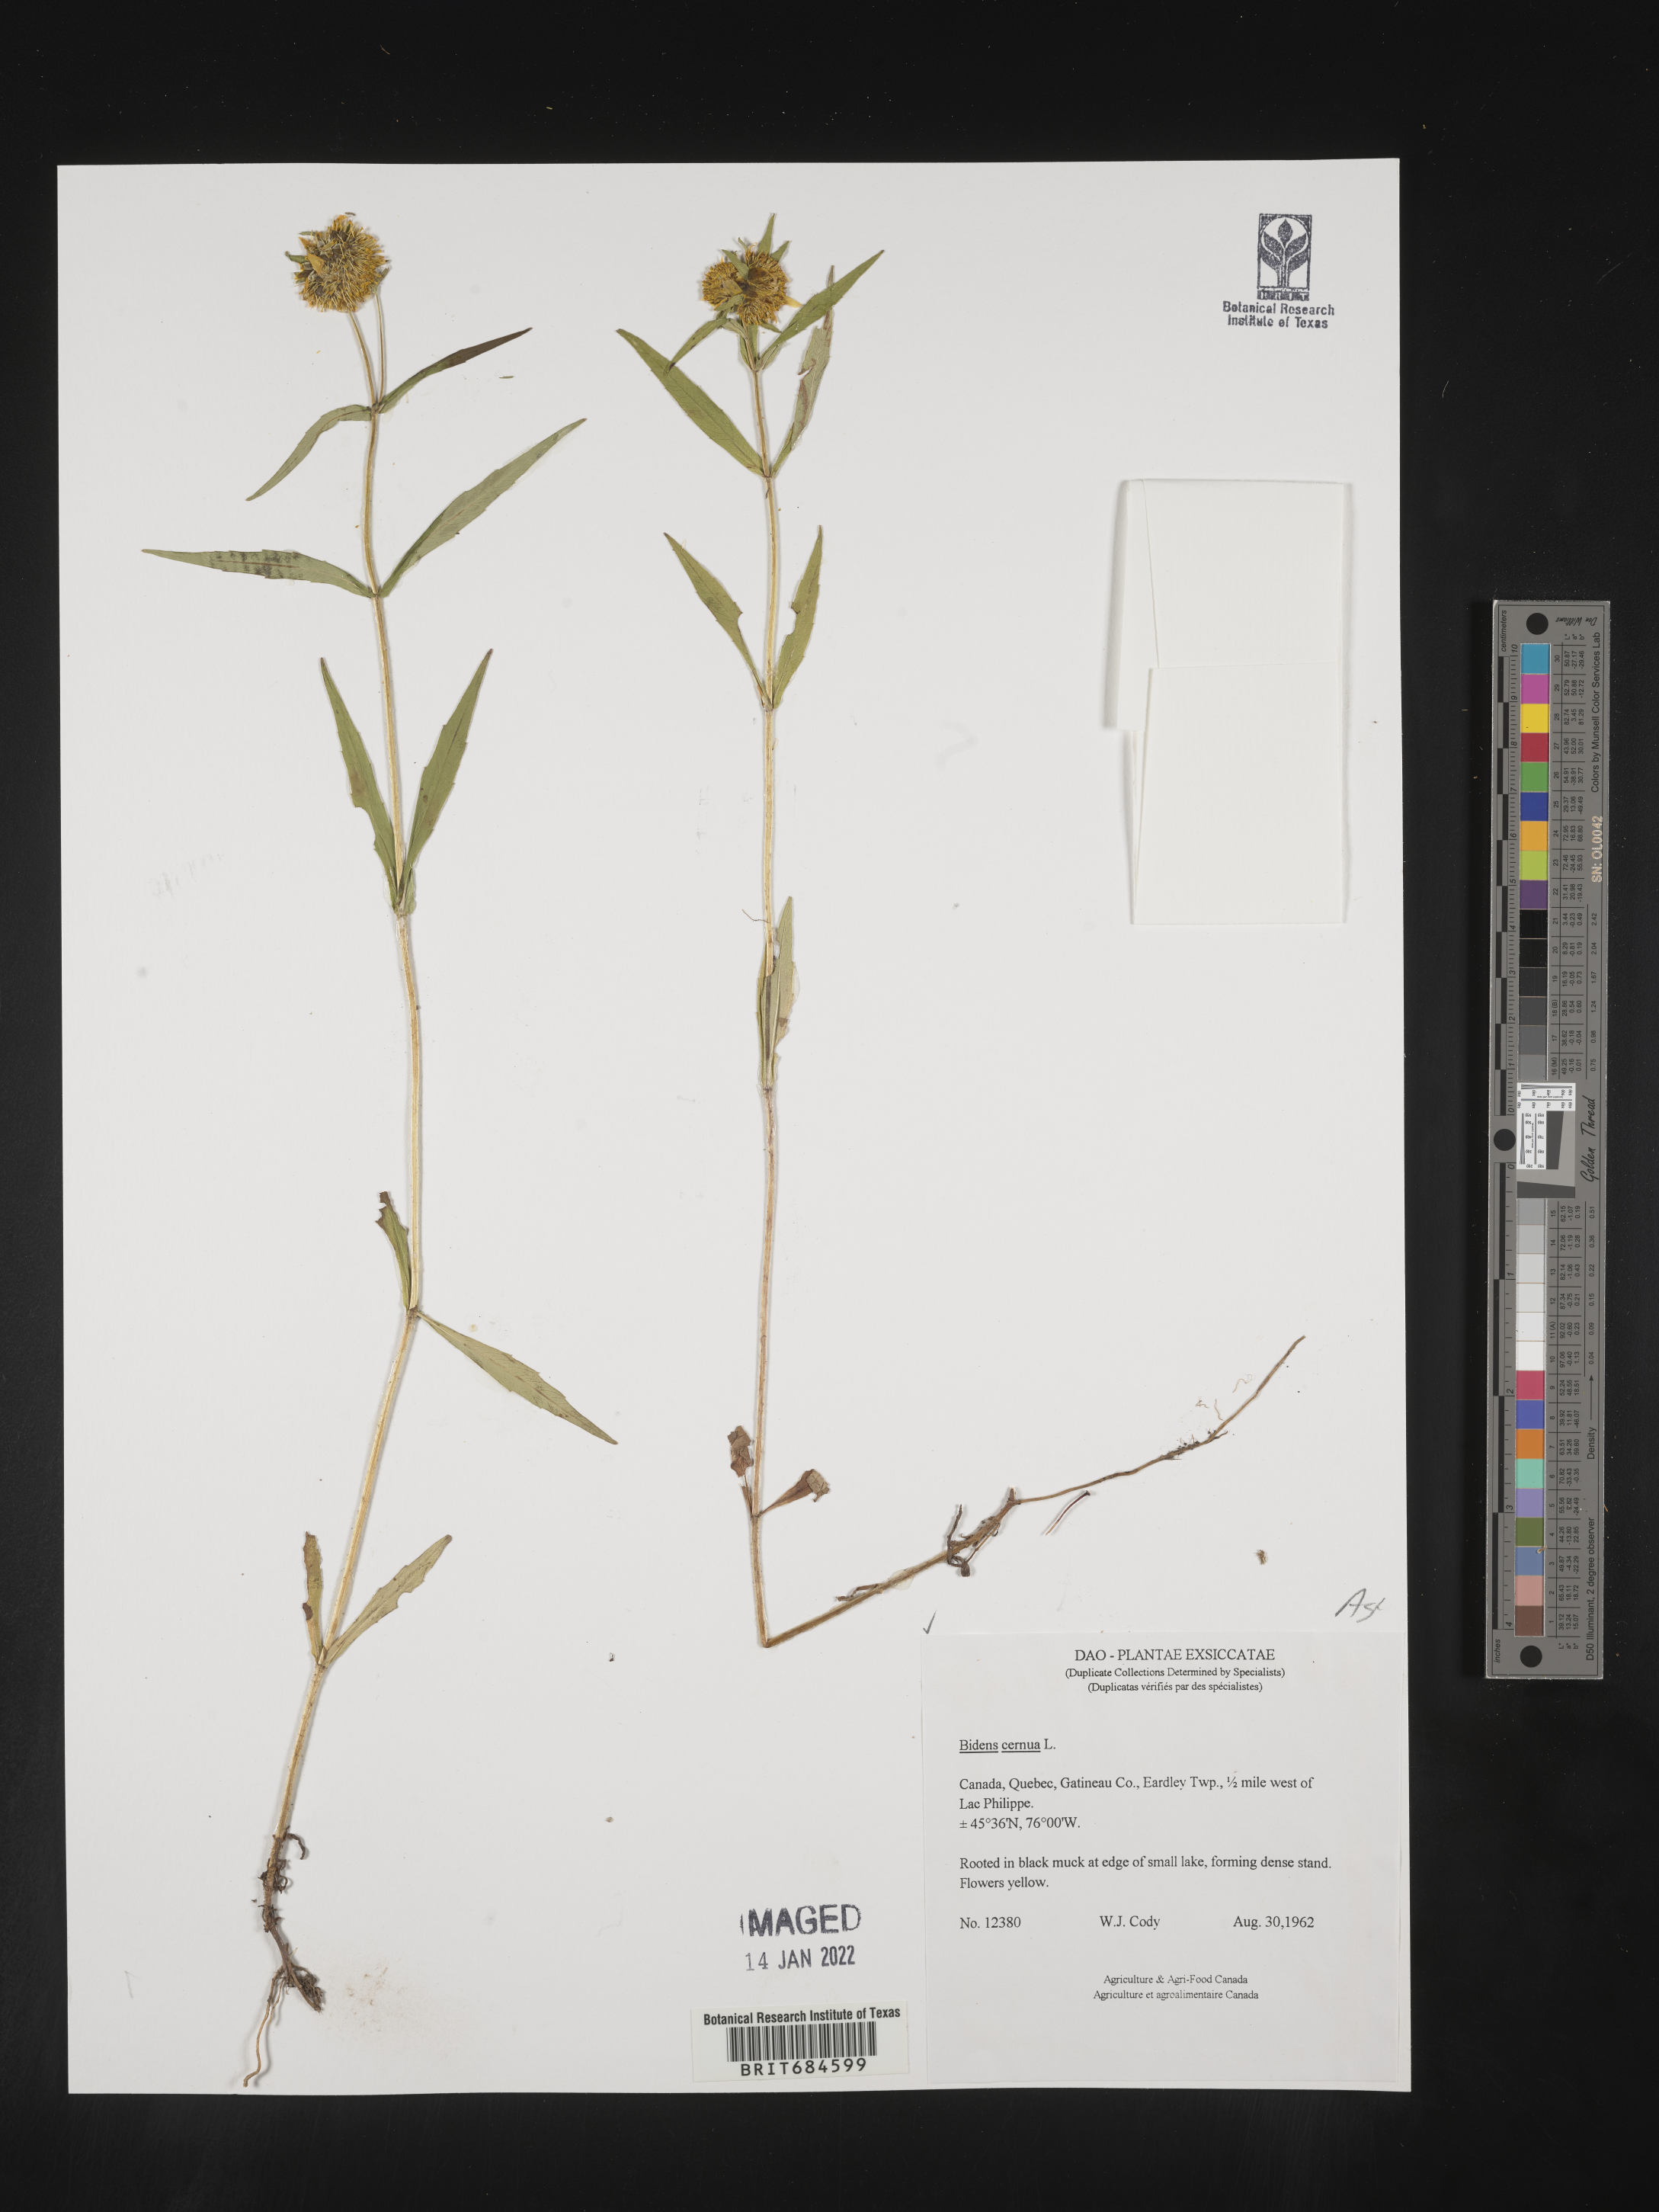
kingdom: Plantae
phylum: Tracheophyta
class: Magnoliopsida
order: Asterales
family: Asteraceae
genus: Bidens
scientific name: Bidens cernua
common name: Nodding bur-marigold
